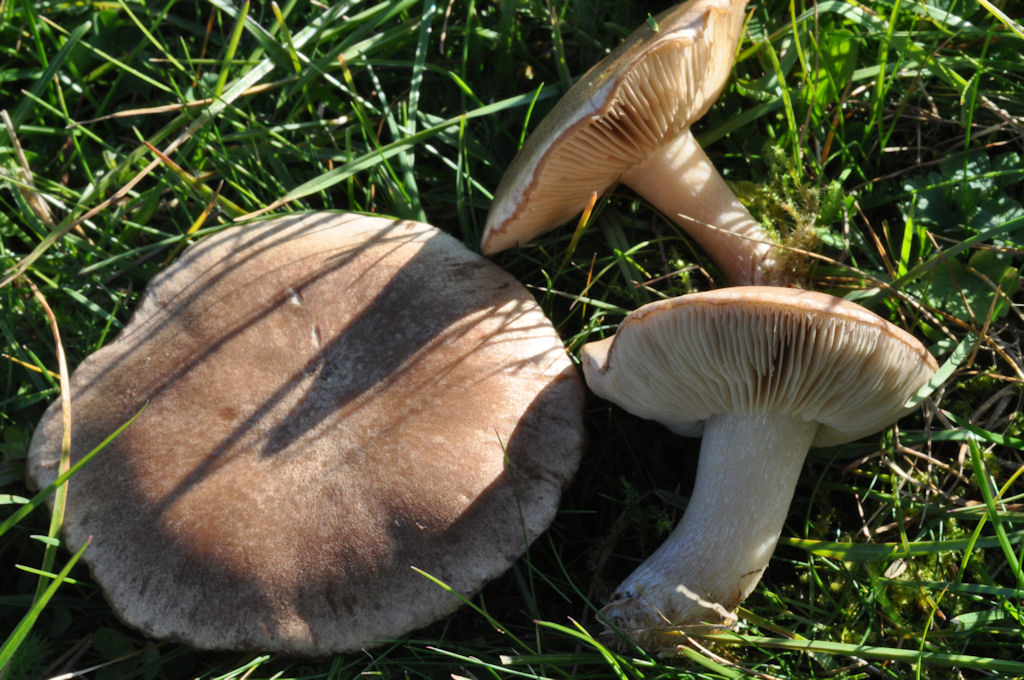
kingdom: Fungi
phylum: Basidiomycota
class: Agaricomycetes
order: Agaricales
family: Tricholomataceae
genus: Lepista
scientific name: Lepista panaeolus
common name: marmoreret hekseringshat
